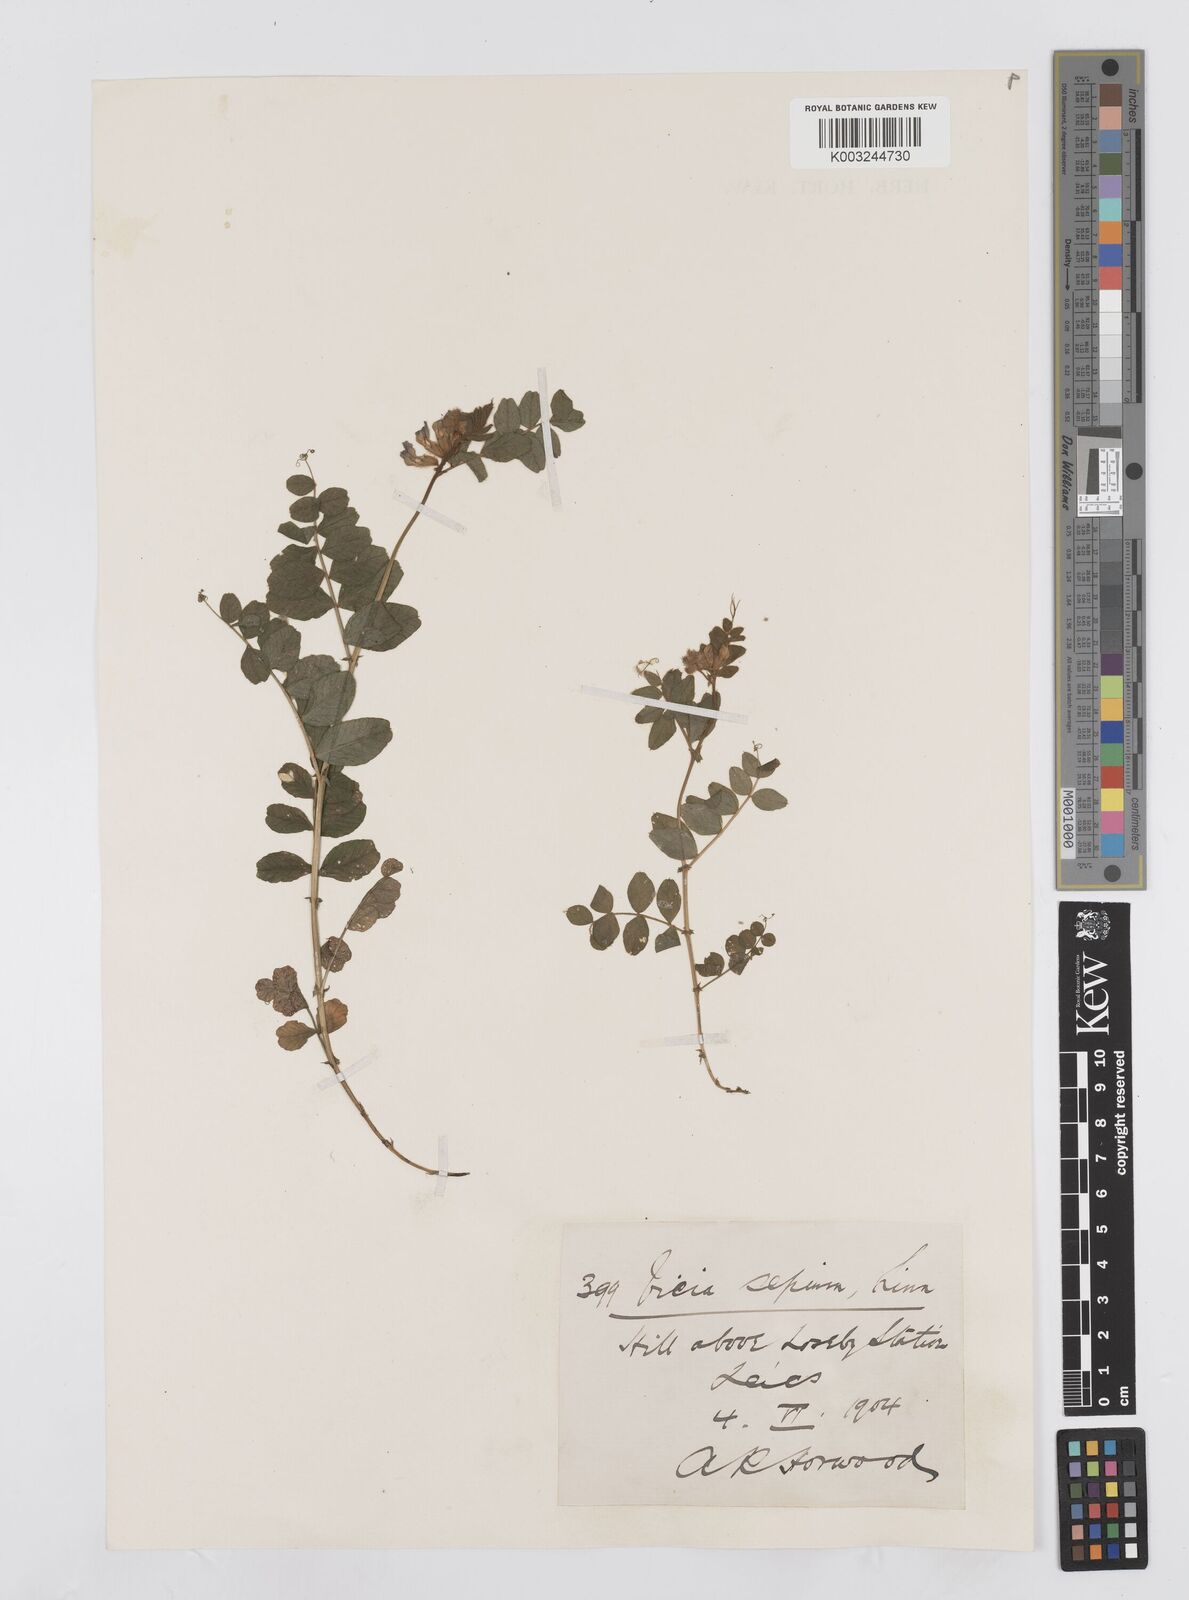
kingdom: Plantae
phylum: Tracheophyta
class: Magnoliopsida
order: Fabales
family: Fabaceae
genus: Vicia
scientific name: Vicia sepium
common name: Bush vetch
